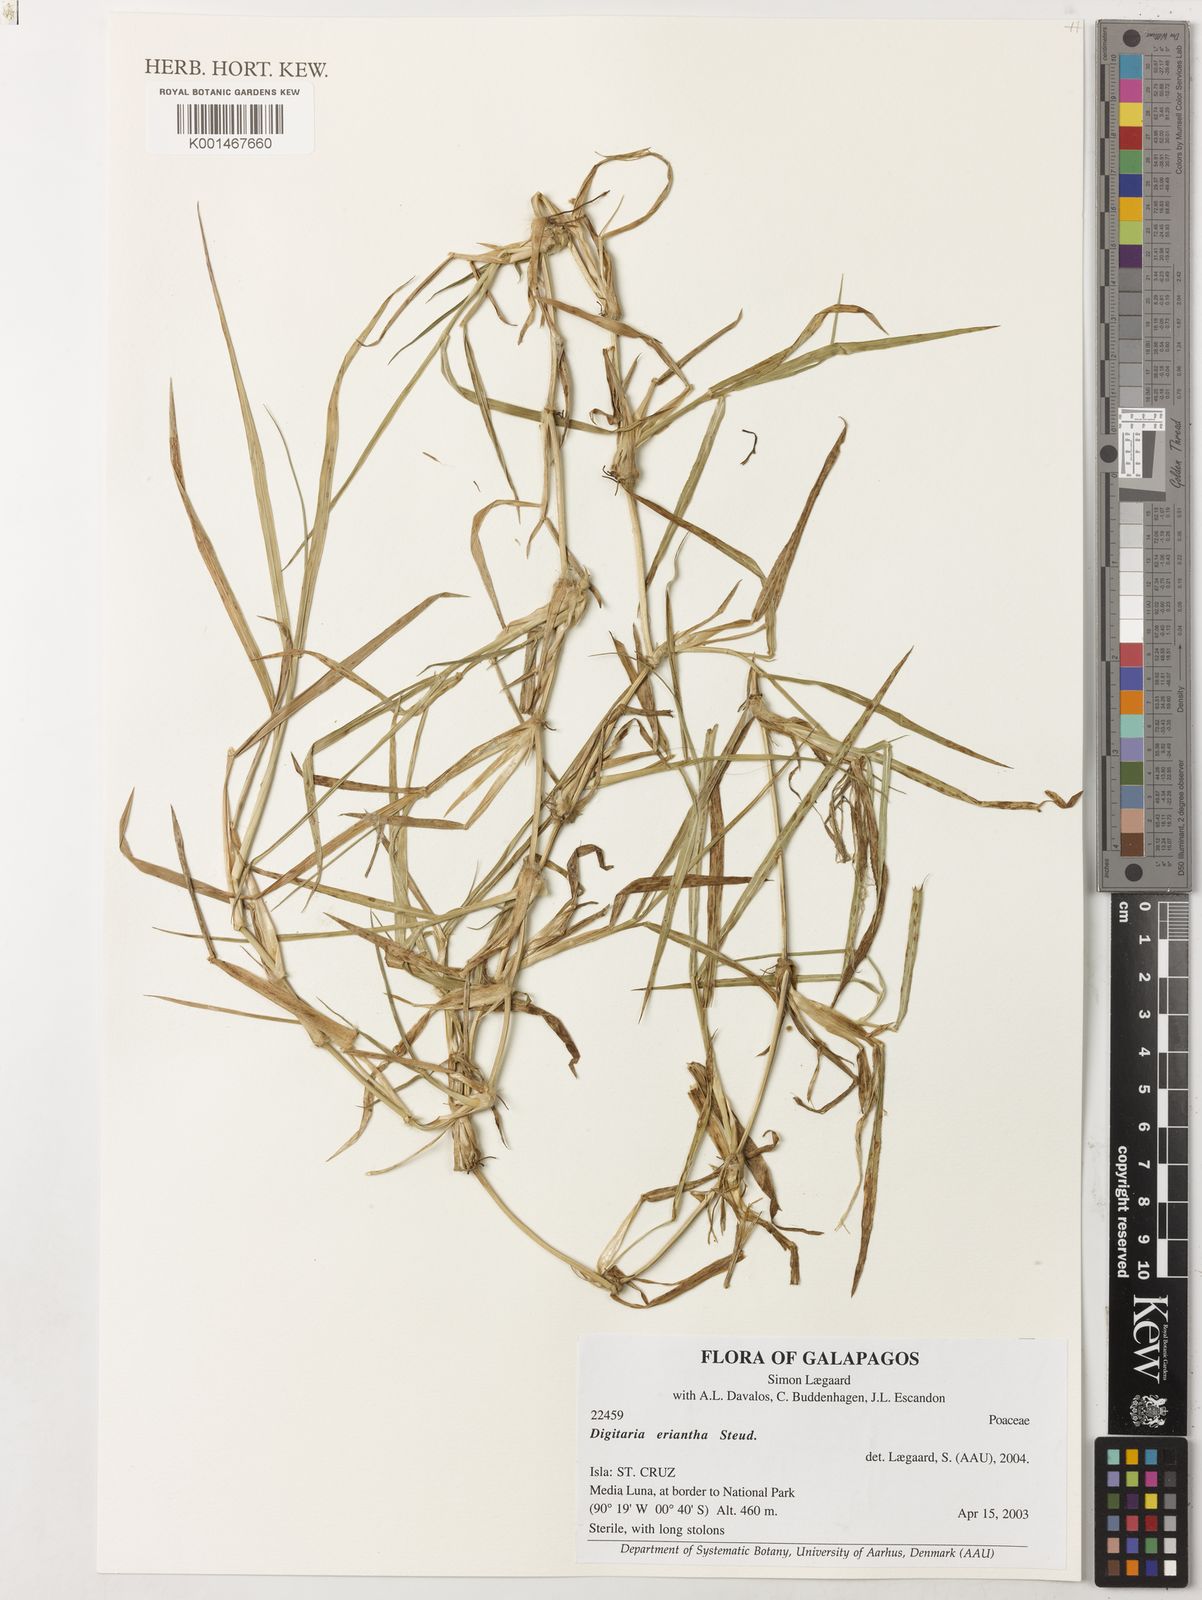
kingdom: Plantae
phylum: Tracheophyta
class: Liliopsida
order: Poales
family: Poaceae
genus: Digitaria
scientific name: Digitaria eriantha
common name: Digitgrass
